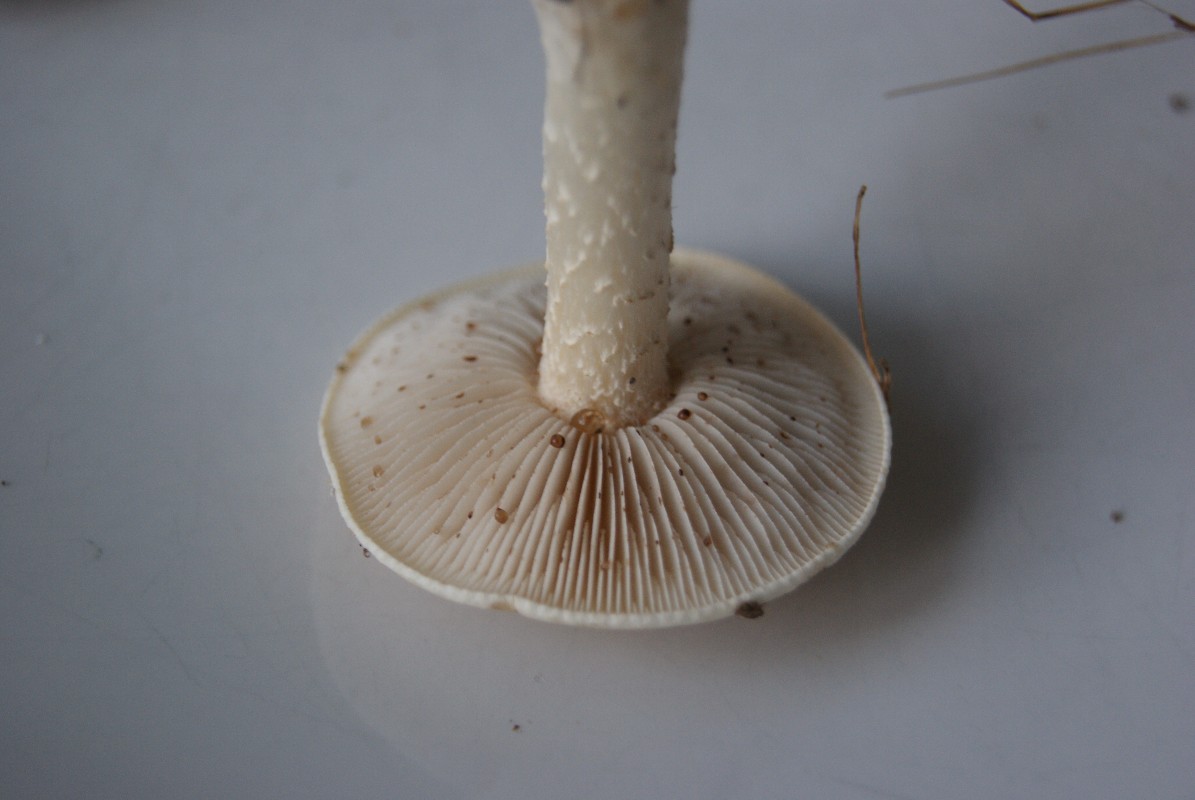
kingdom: Fungi
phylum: Basidiomycota
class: Agaricomycetes
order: Agaricales
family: Hymenogastraceae
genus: Hebeloma
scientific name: Hebeloma crustuliniforme
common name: almindelig tåreblad
